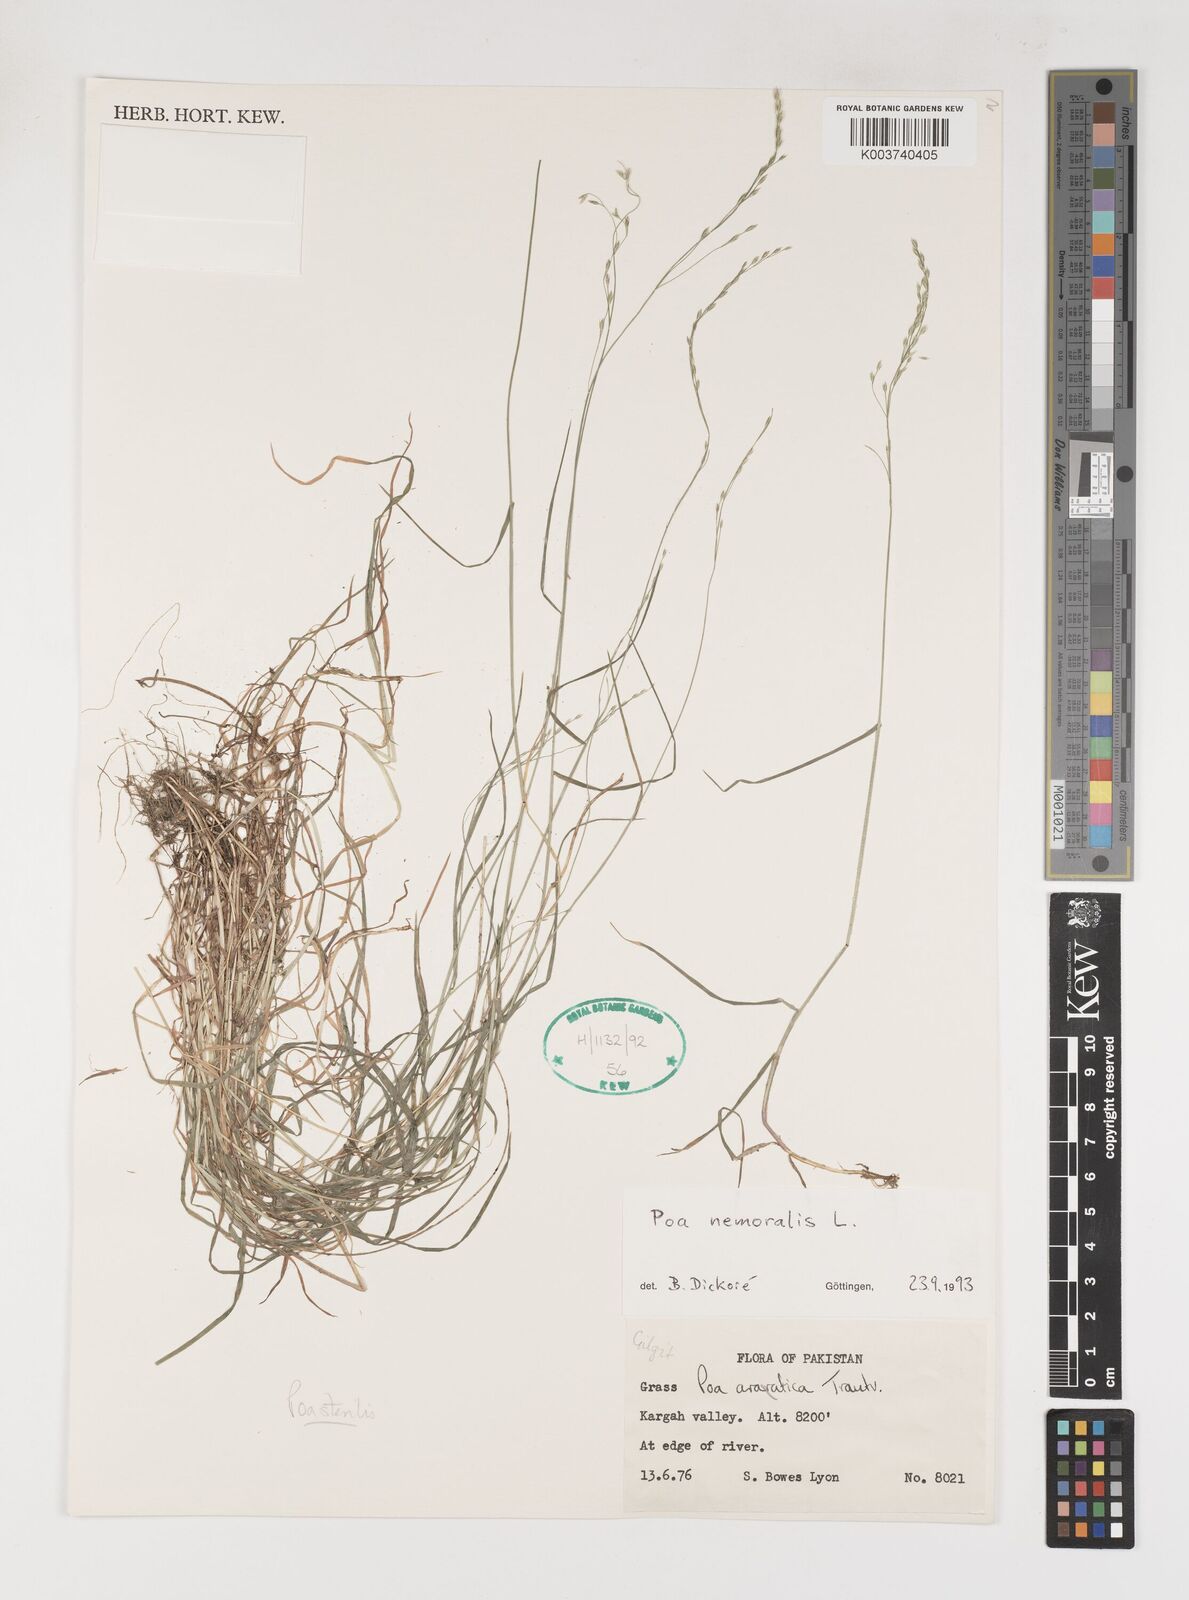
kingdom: Plantae
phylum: Tracheophyta
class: Liliopsida
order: Poales
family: Poaceae
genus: Poa
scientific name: Poa nemoralis
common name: Wood bluegrass
